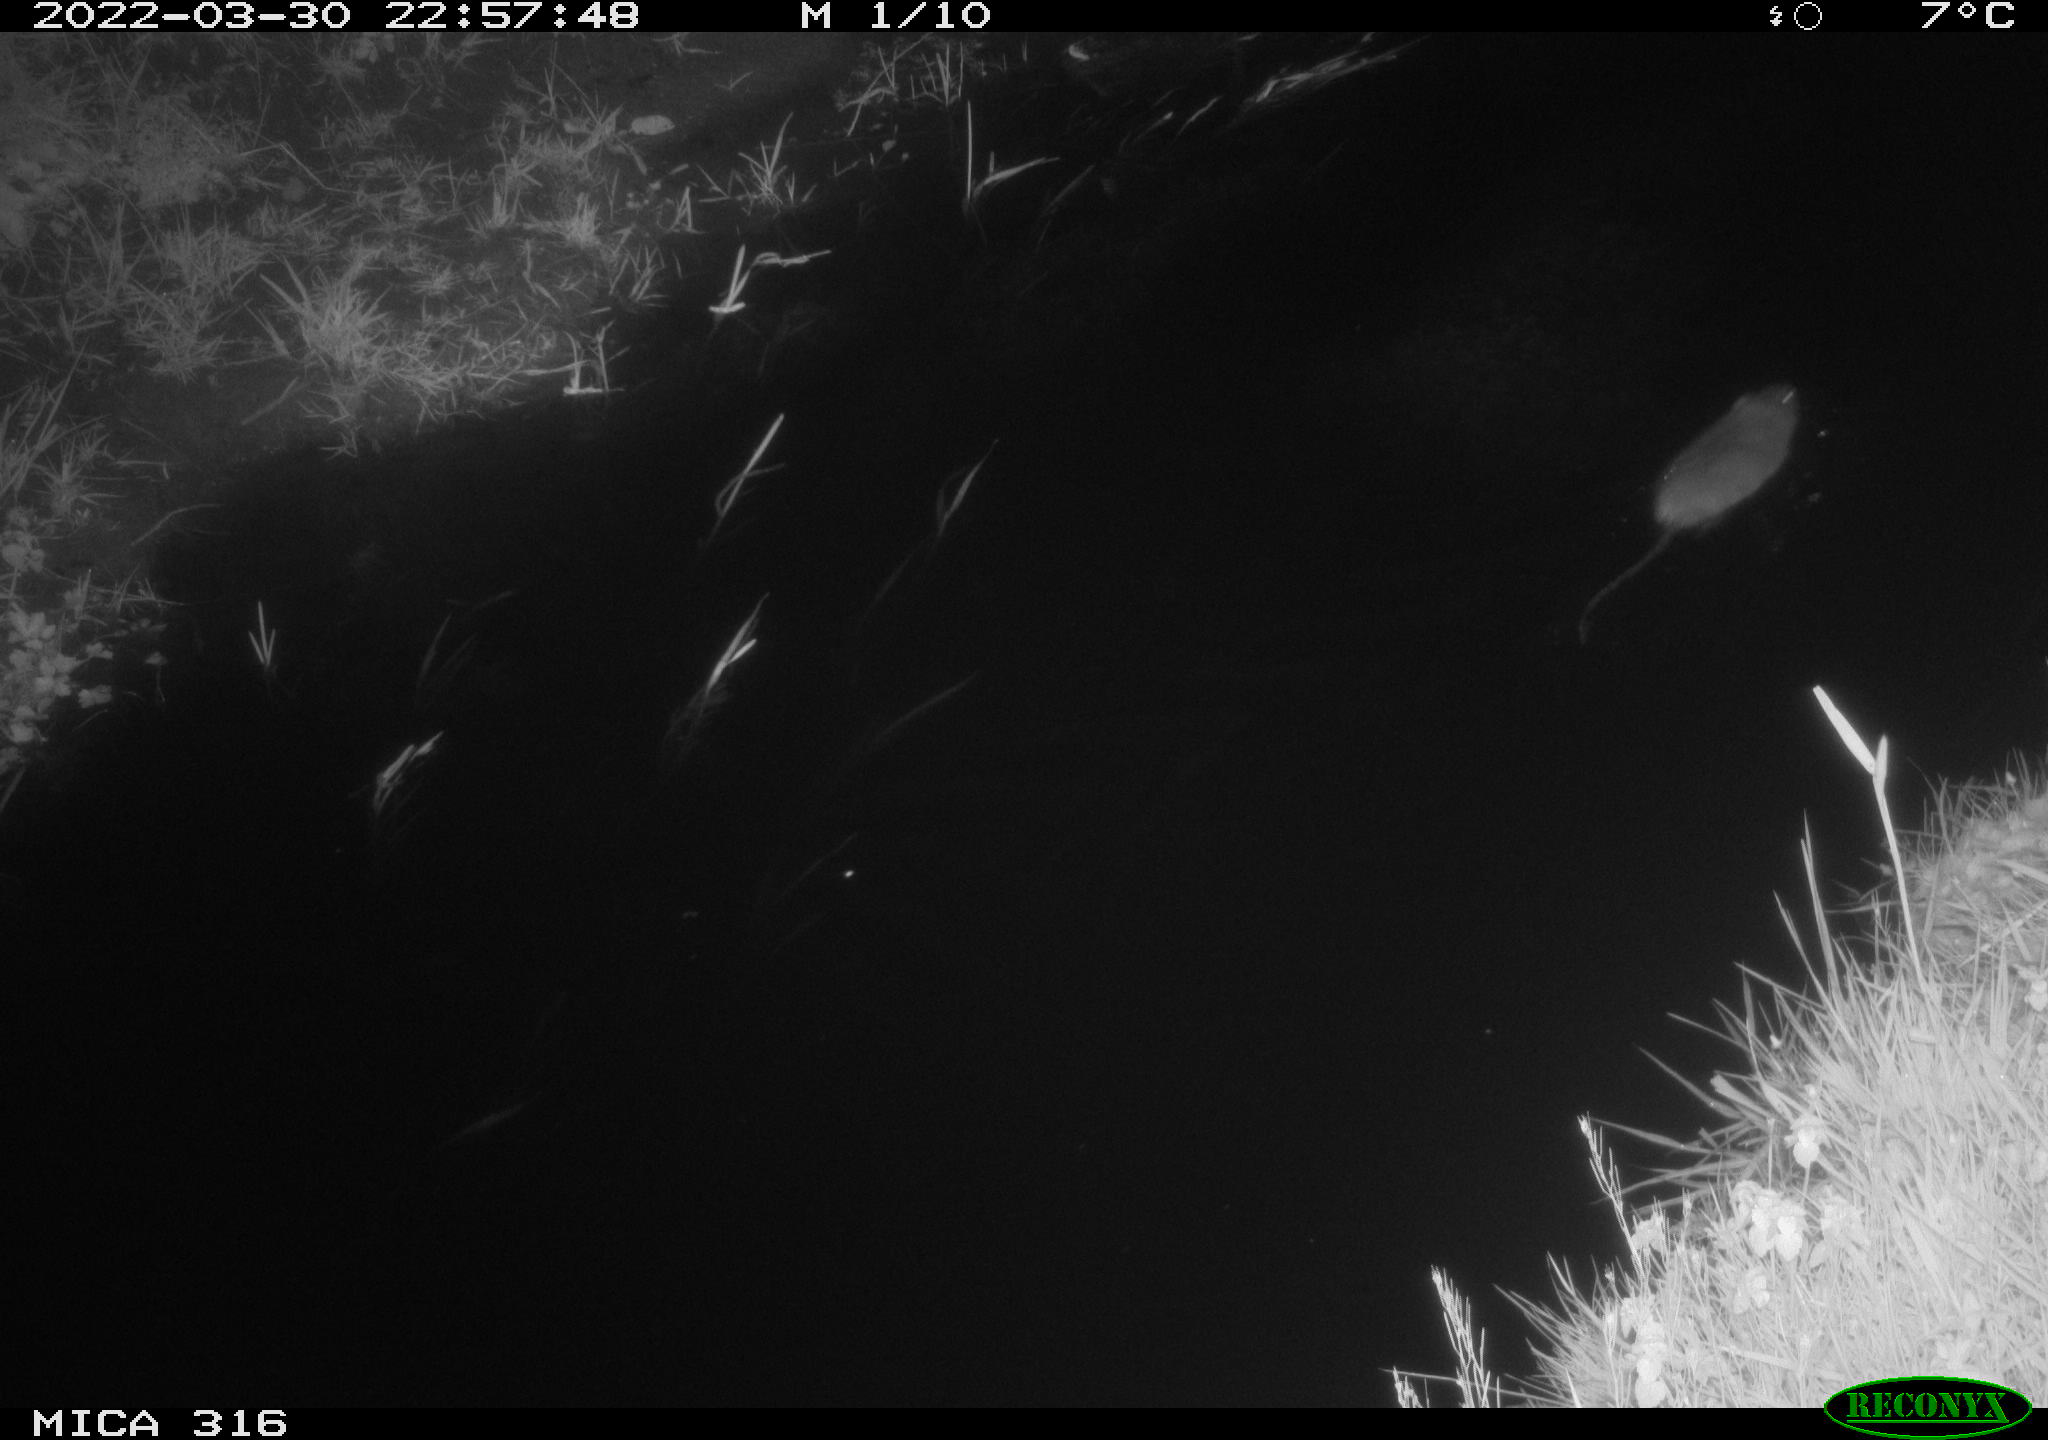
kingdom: Animalia
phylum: Chordata
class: Mammalia
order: Rodentia
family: Cricetidae
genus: Ondatra
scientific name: Ondatra zibethicus
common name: Muskrat
